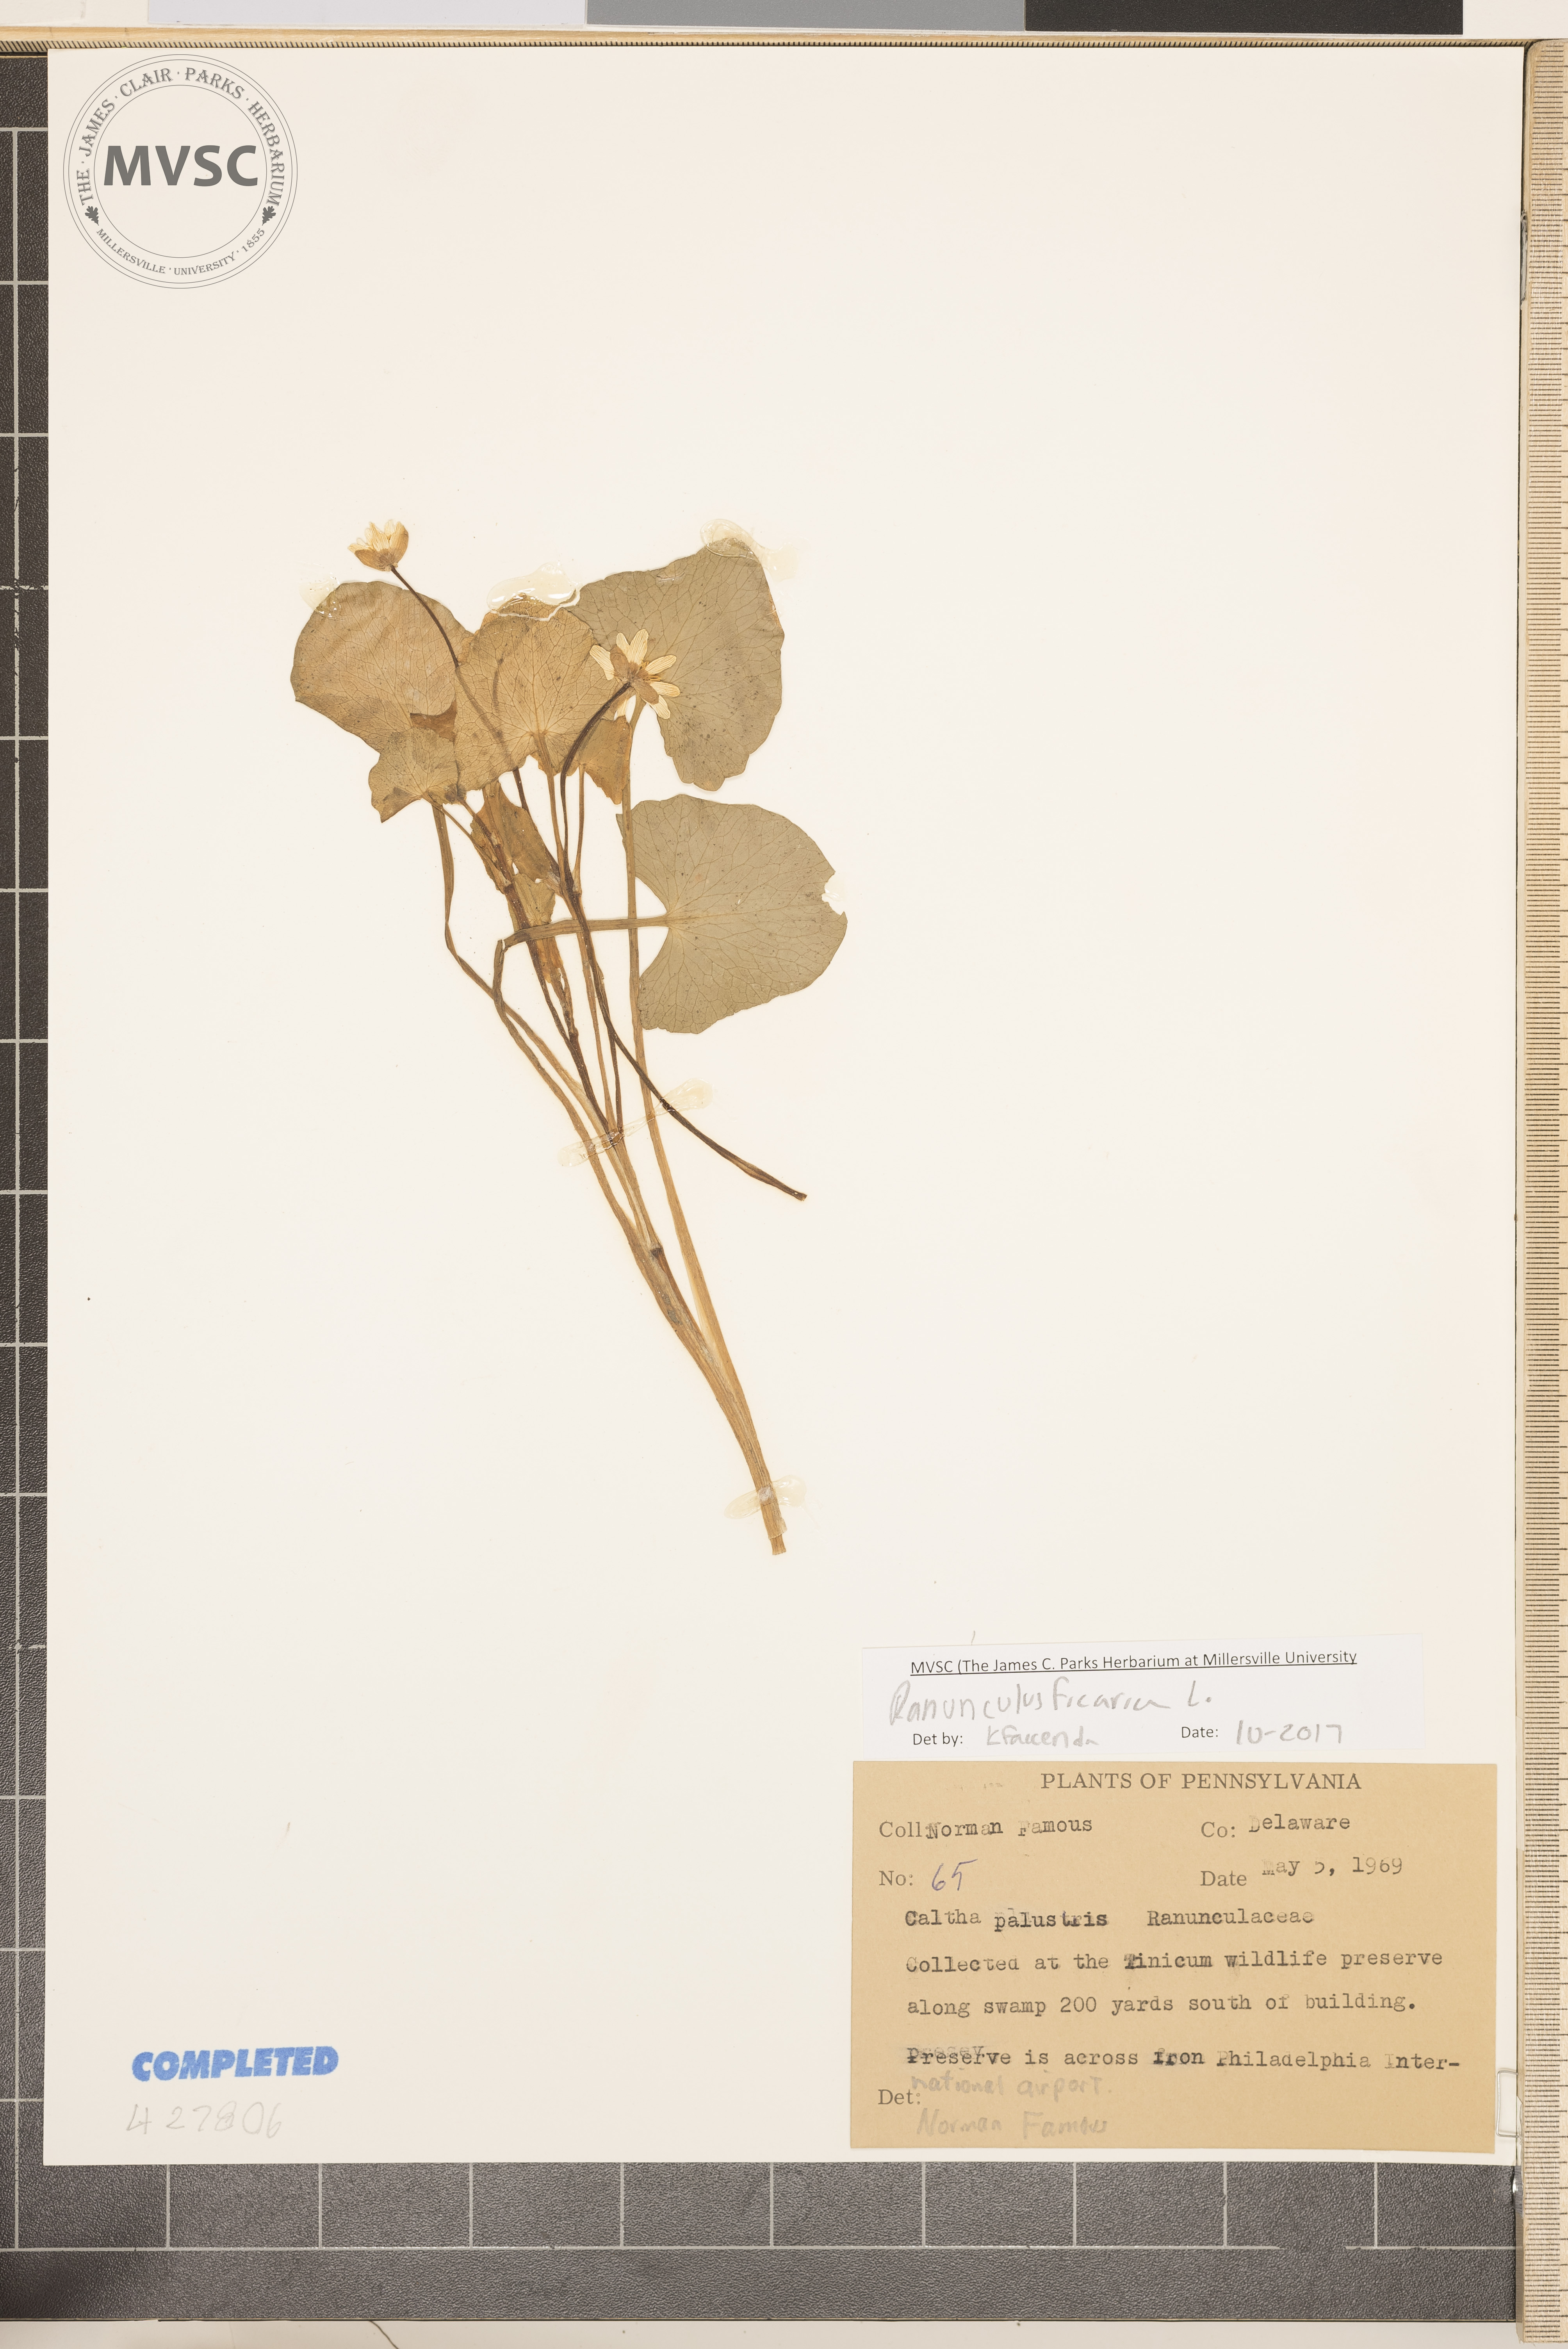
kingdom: Plantae
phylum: Tracheophyta
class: Magnoliopsida
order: Ranunculales
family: Ranunculaceae
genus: Ficaria
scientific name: Ficaria verna
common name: Lesser celandine
